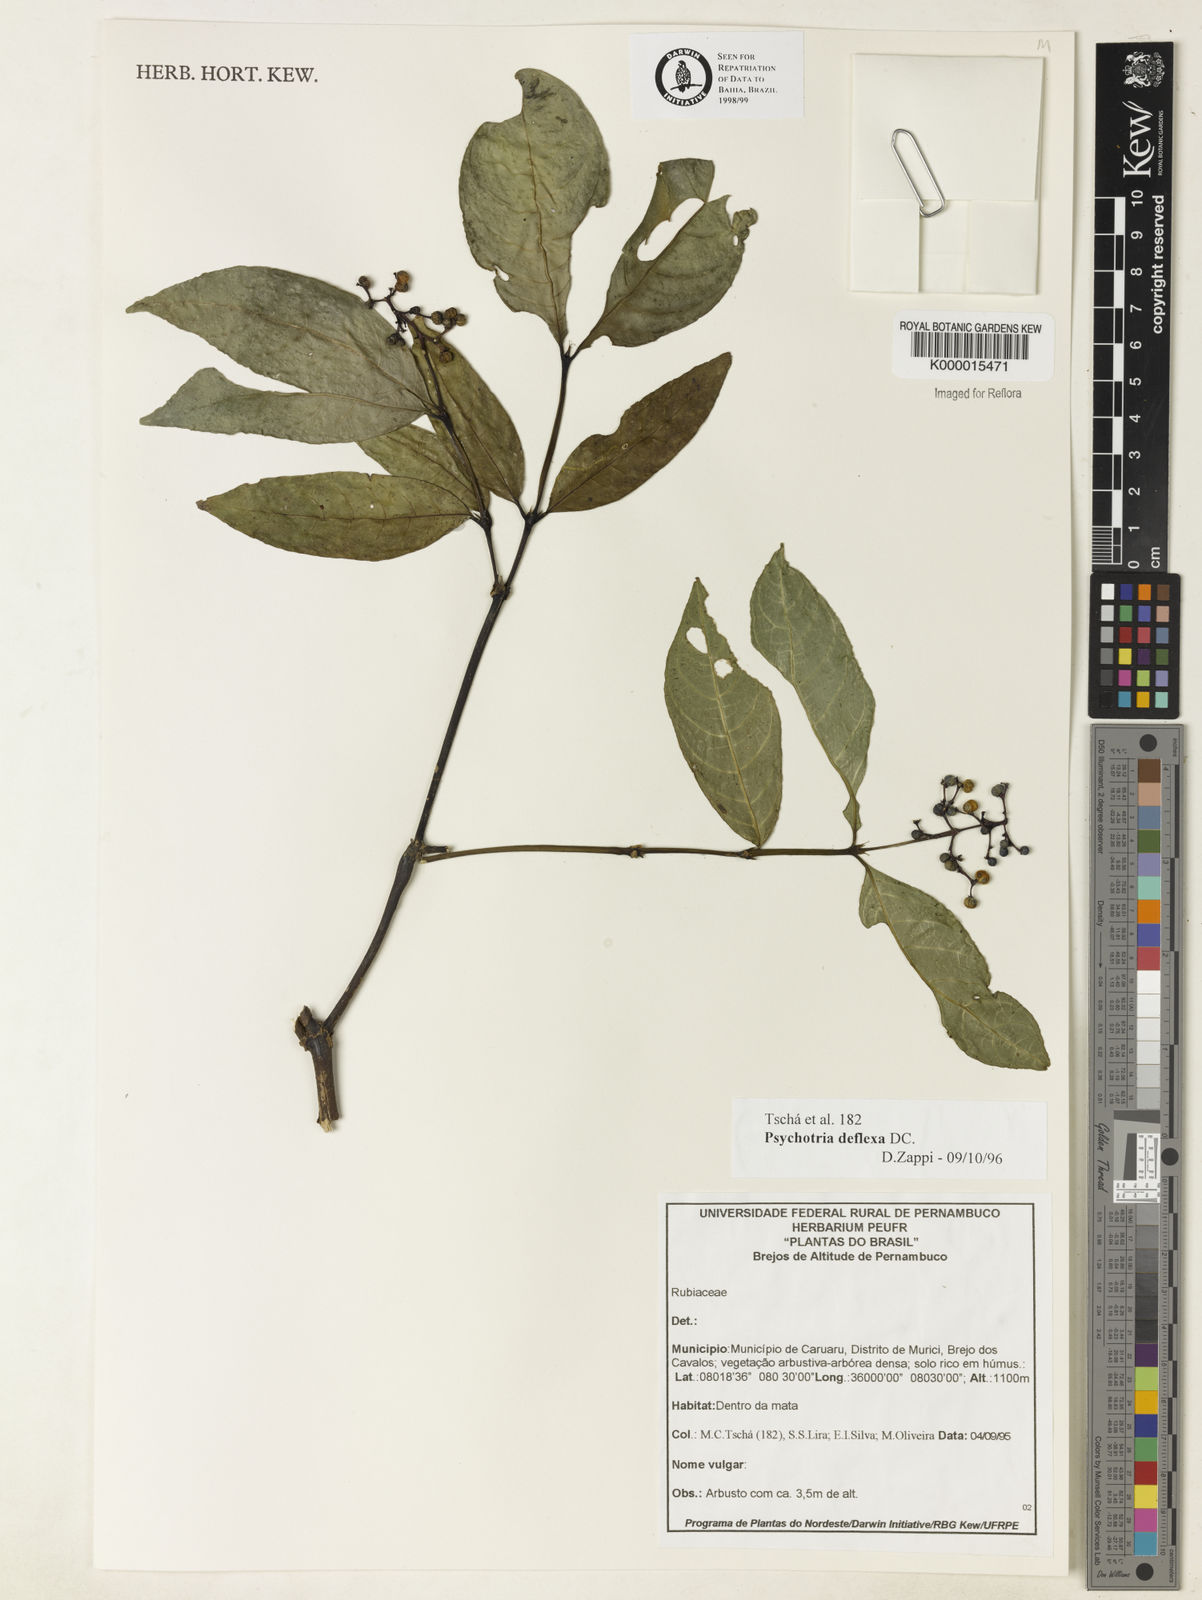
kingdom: Plantae
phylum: Tracheophyta
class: Magnoliopsida
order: Gentianales
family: Rubiaceae
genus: Palicourea
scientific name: Palicourea deflexa
